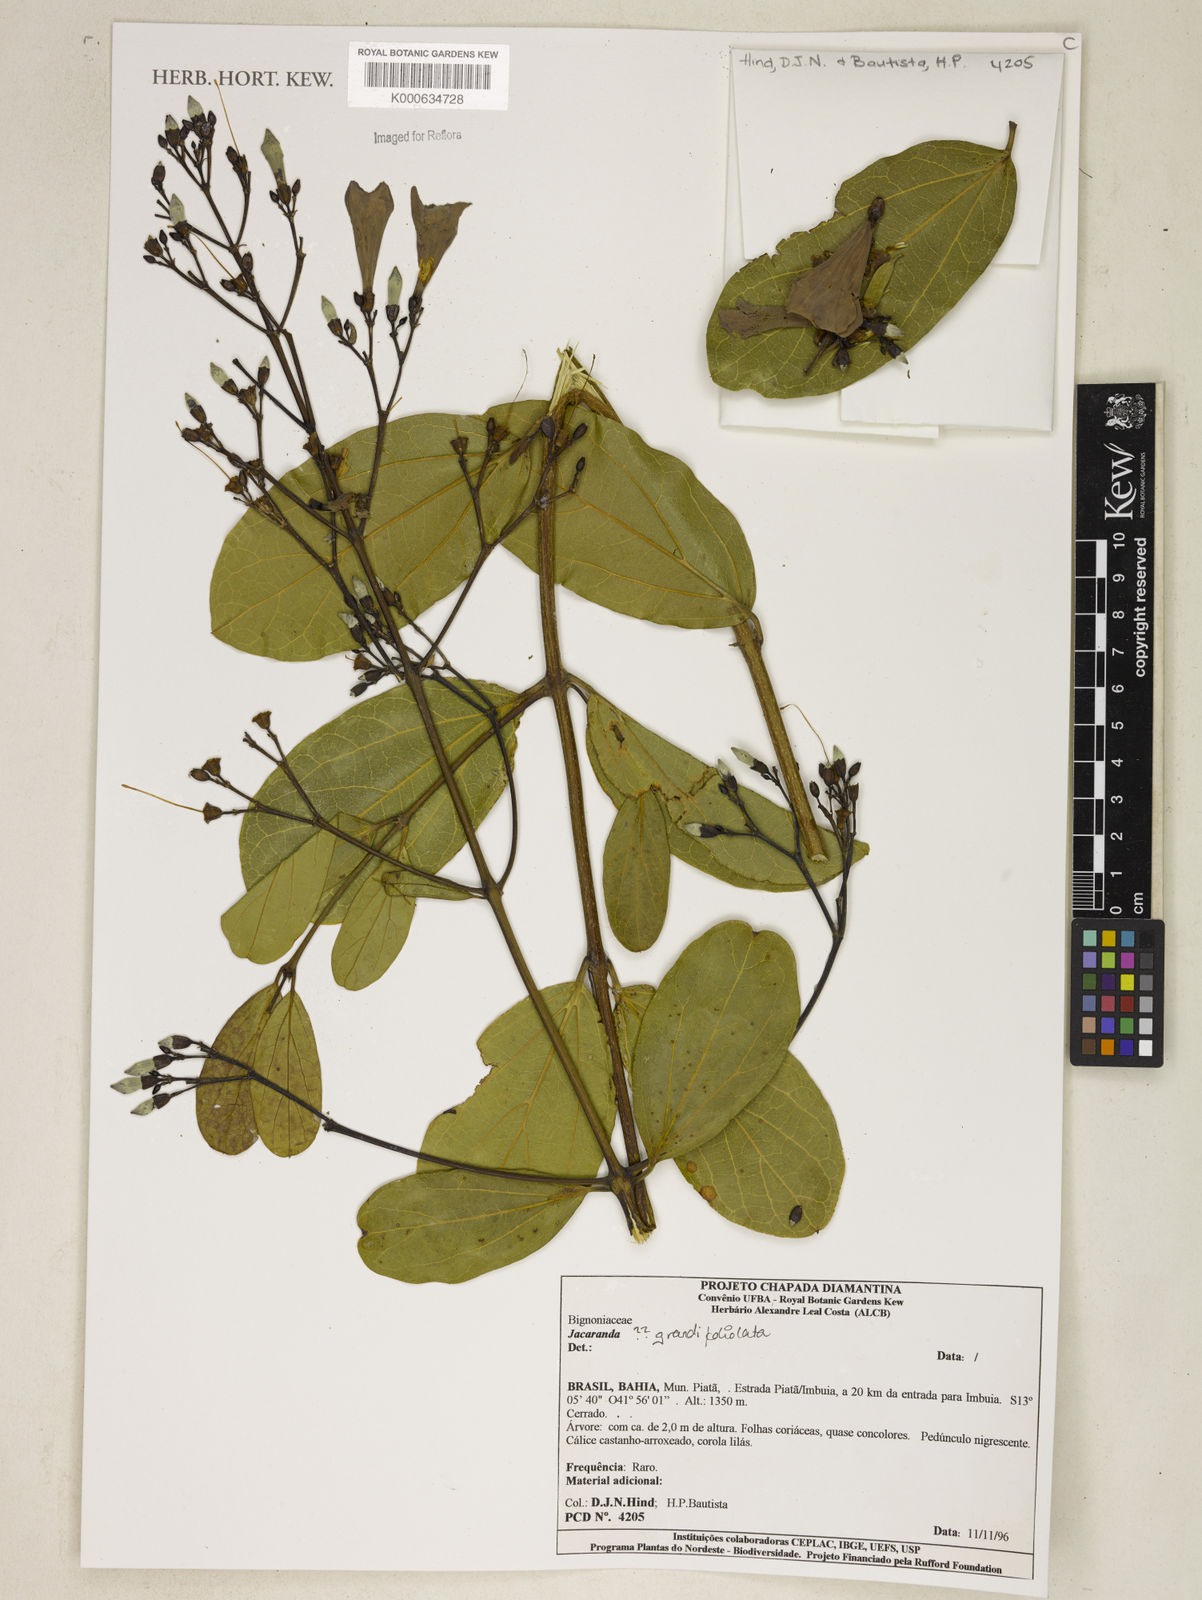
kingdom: Plantae
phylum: Tracheophyta
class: Magnoliopsida
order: Lamiales
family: Bignoniaceae
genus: Jacaranda
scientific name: Jacaranda
